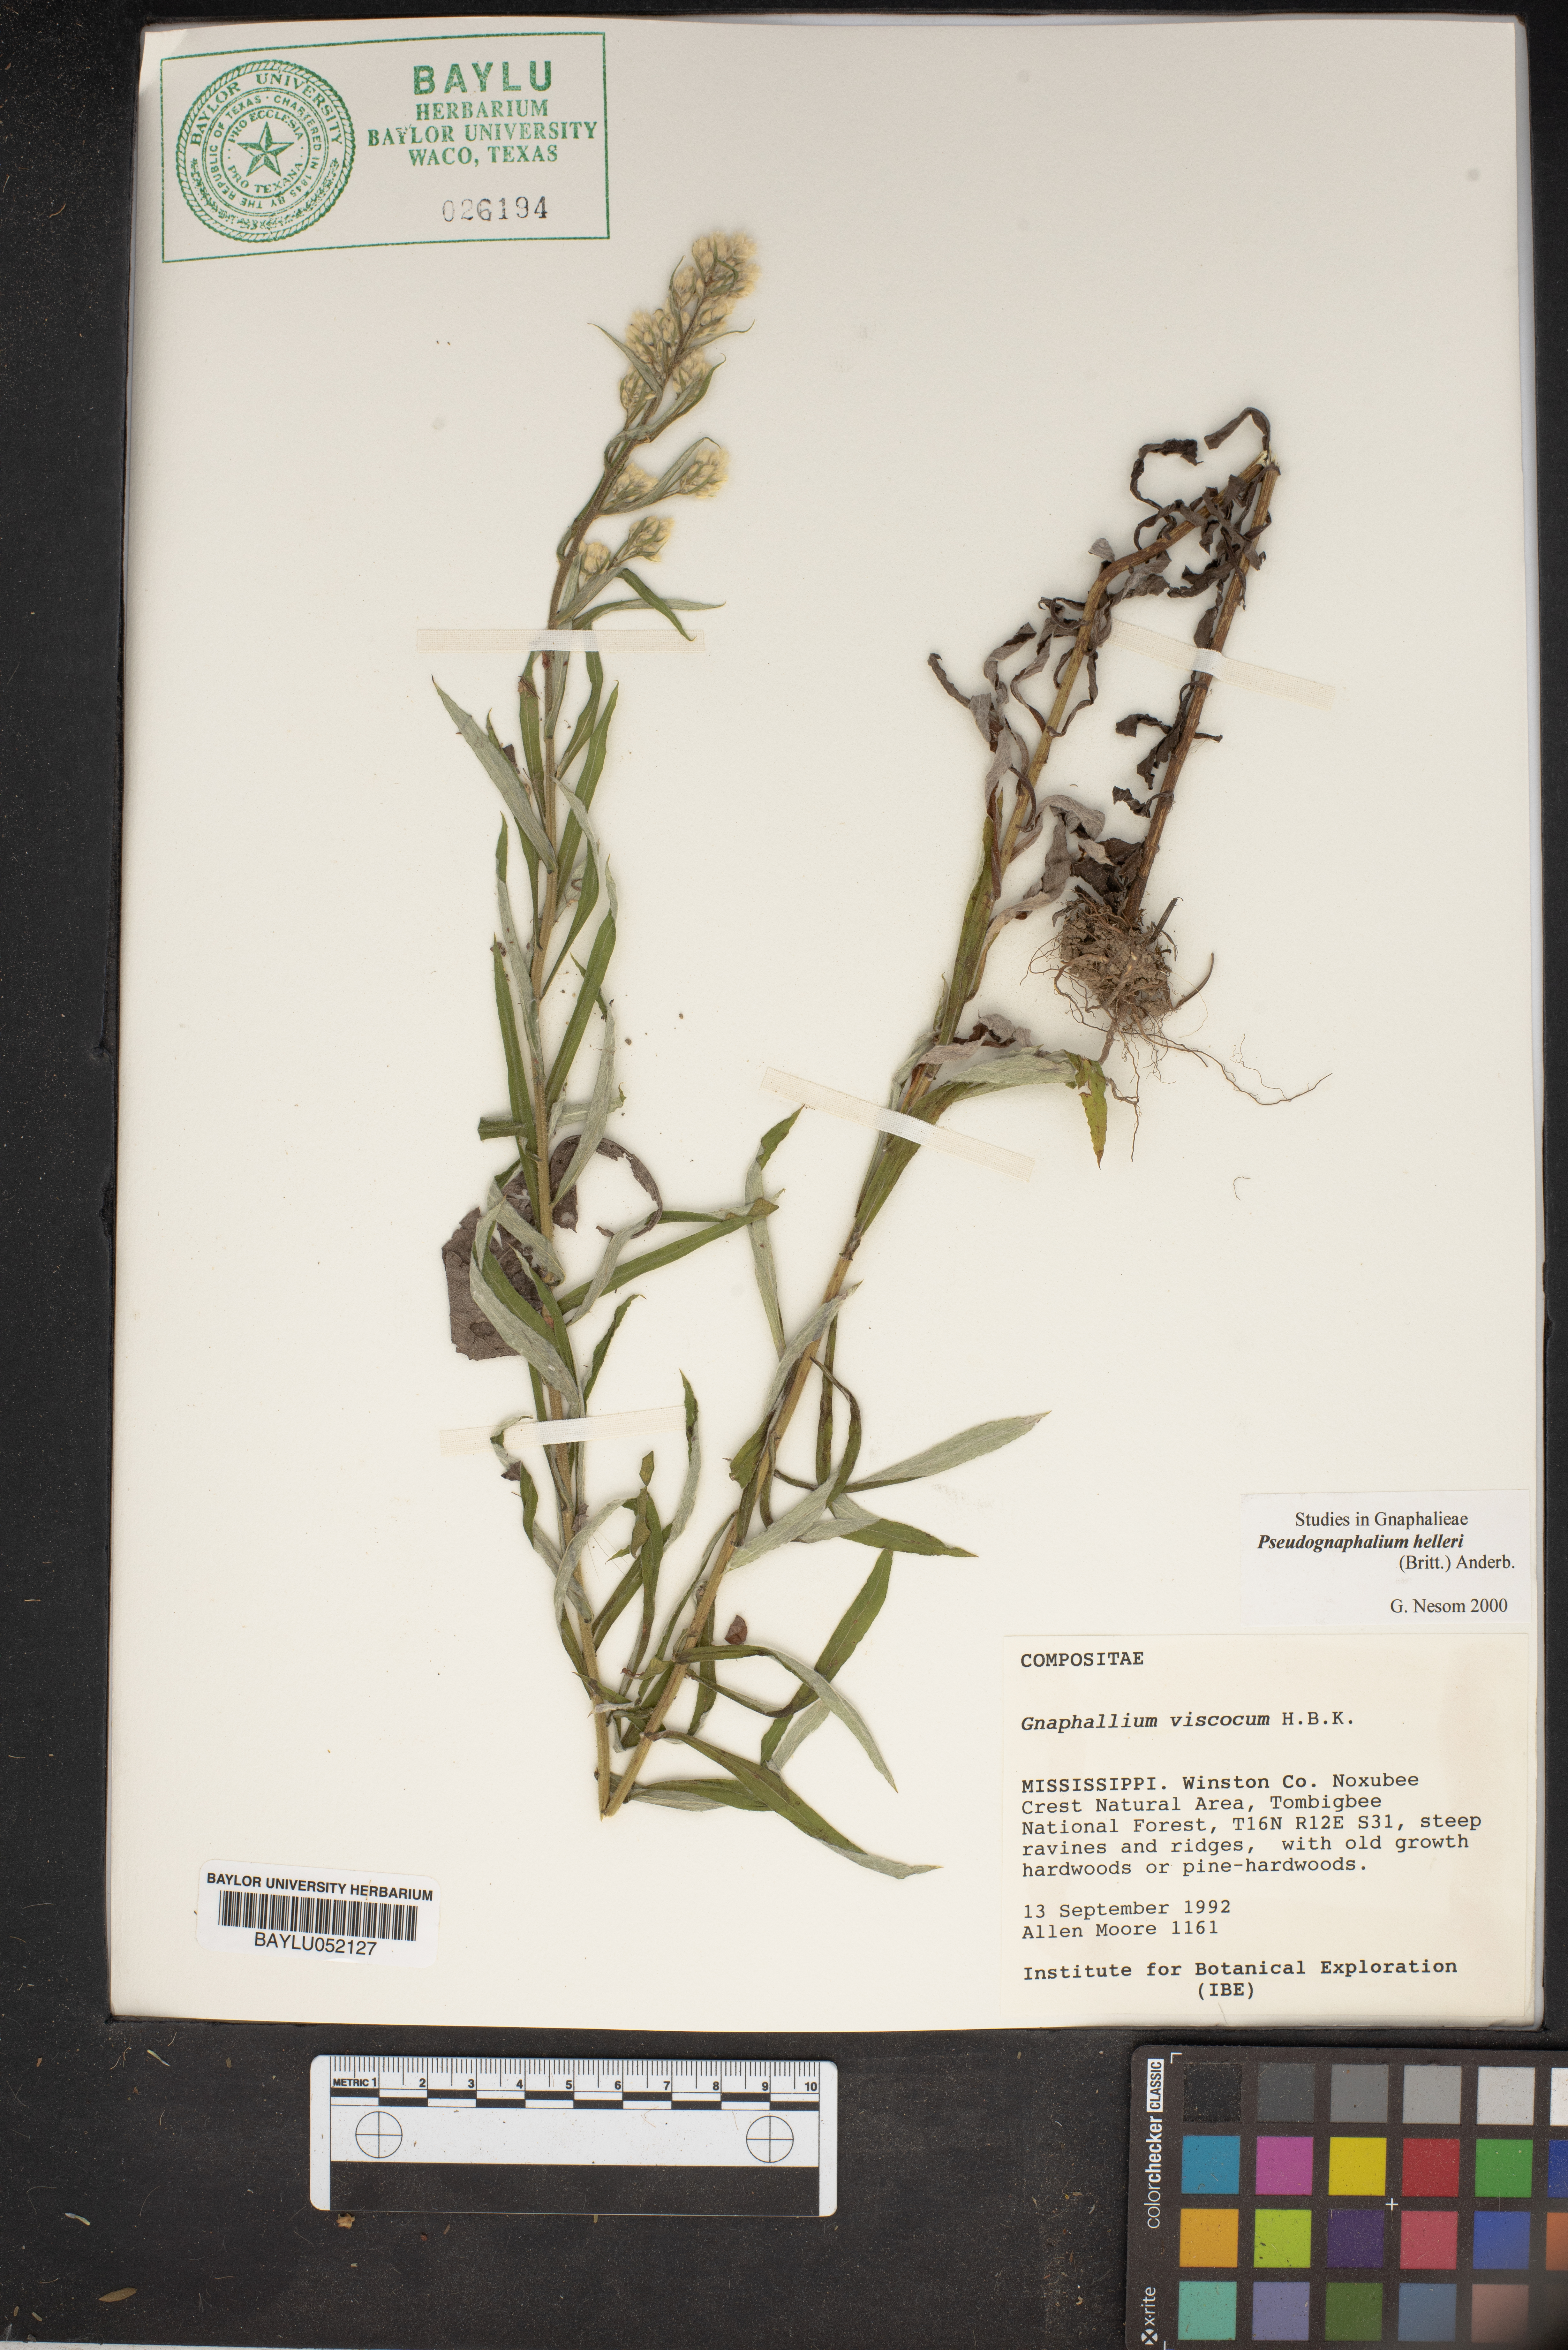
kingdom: Plantae
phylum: Tracheophyta
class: Magnoliopsida
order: Asterales
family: Asteraceae
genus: Pseudognaphalium
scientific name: Pseudognaphalium viscosum
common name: Sticky rabbit-tobacco
